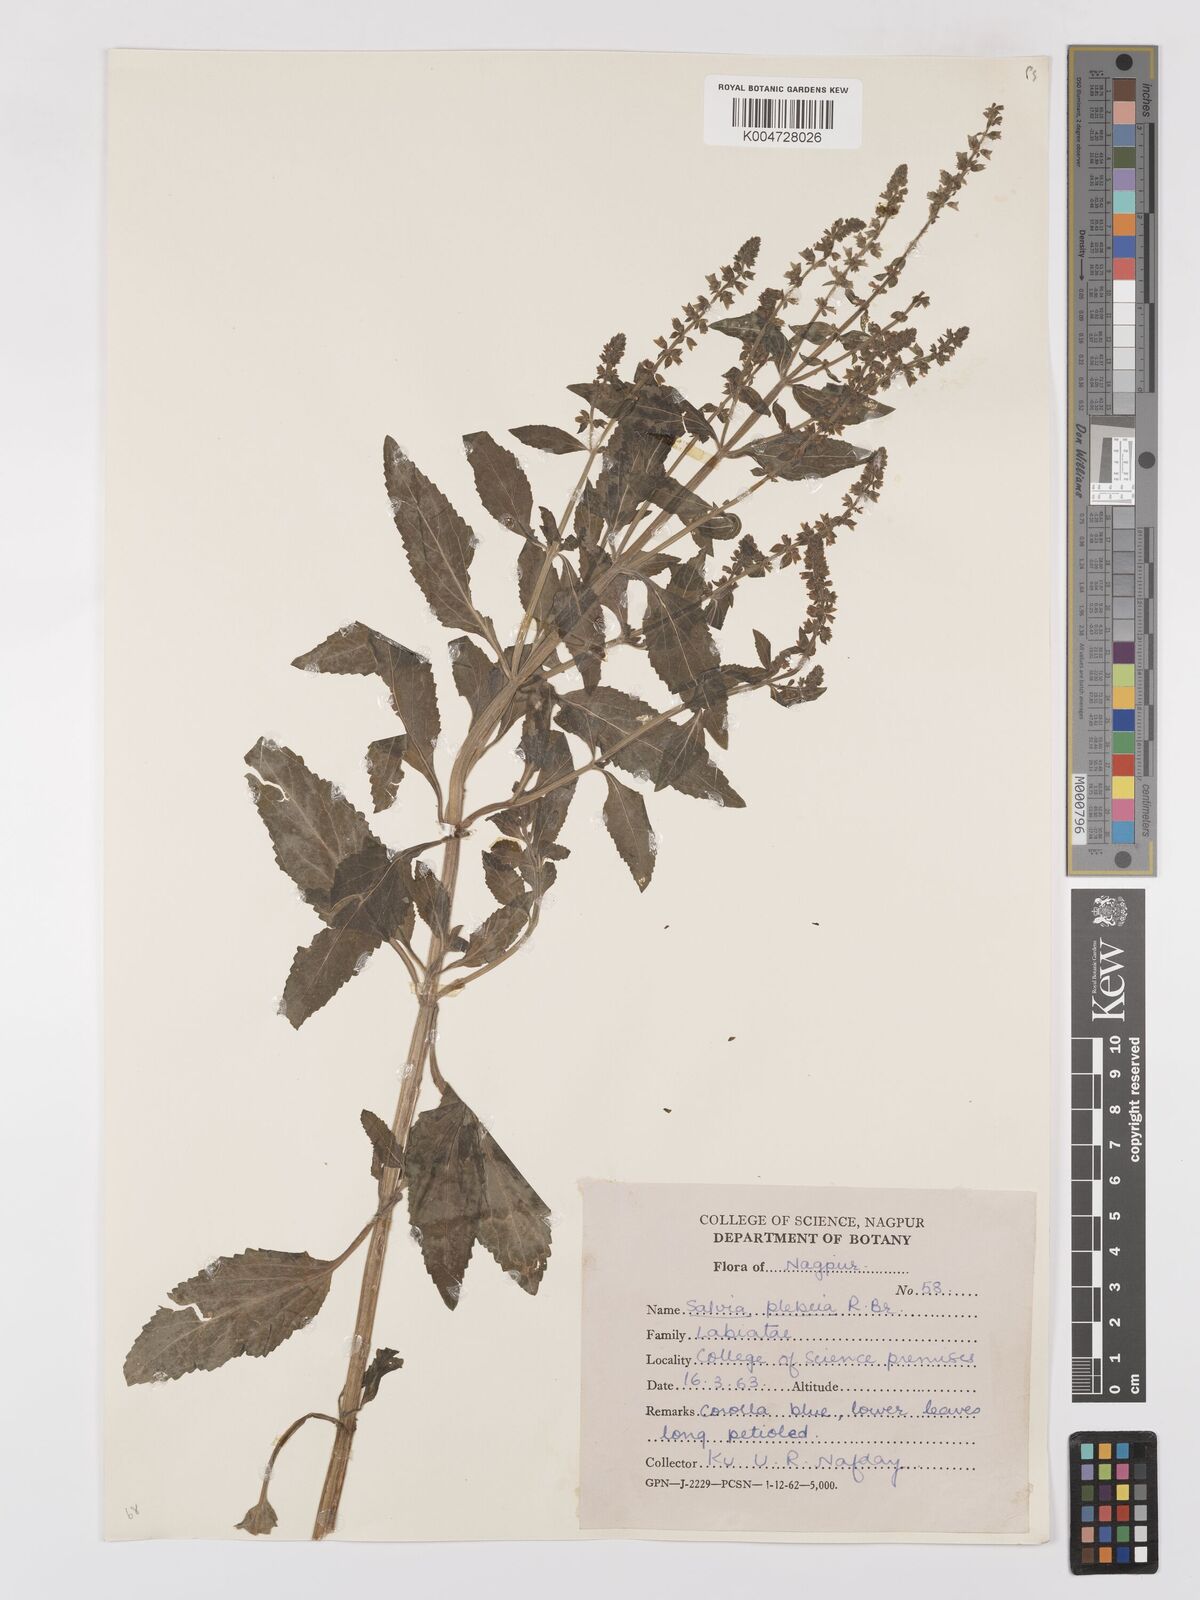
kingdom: Plantae
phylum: Tracheophyta
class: Magnoliopsida
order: Lamiales
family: Lamiaceae
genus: Salvia
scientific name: Salvia plebeia
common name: Australian sage
